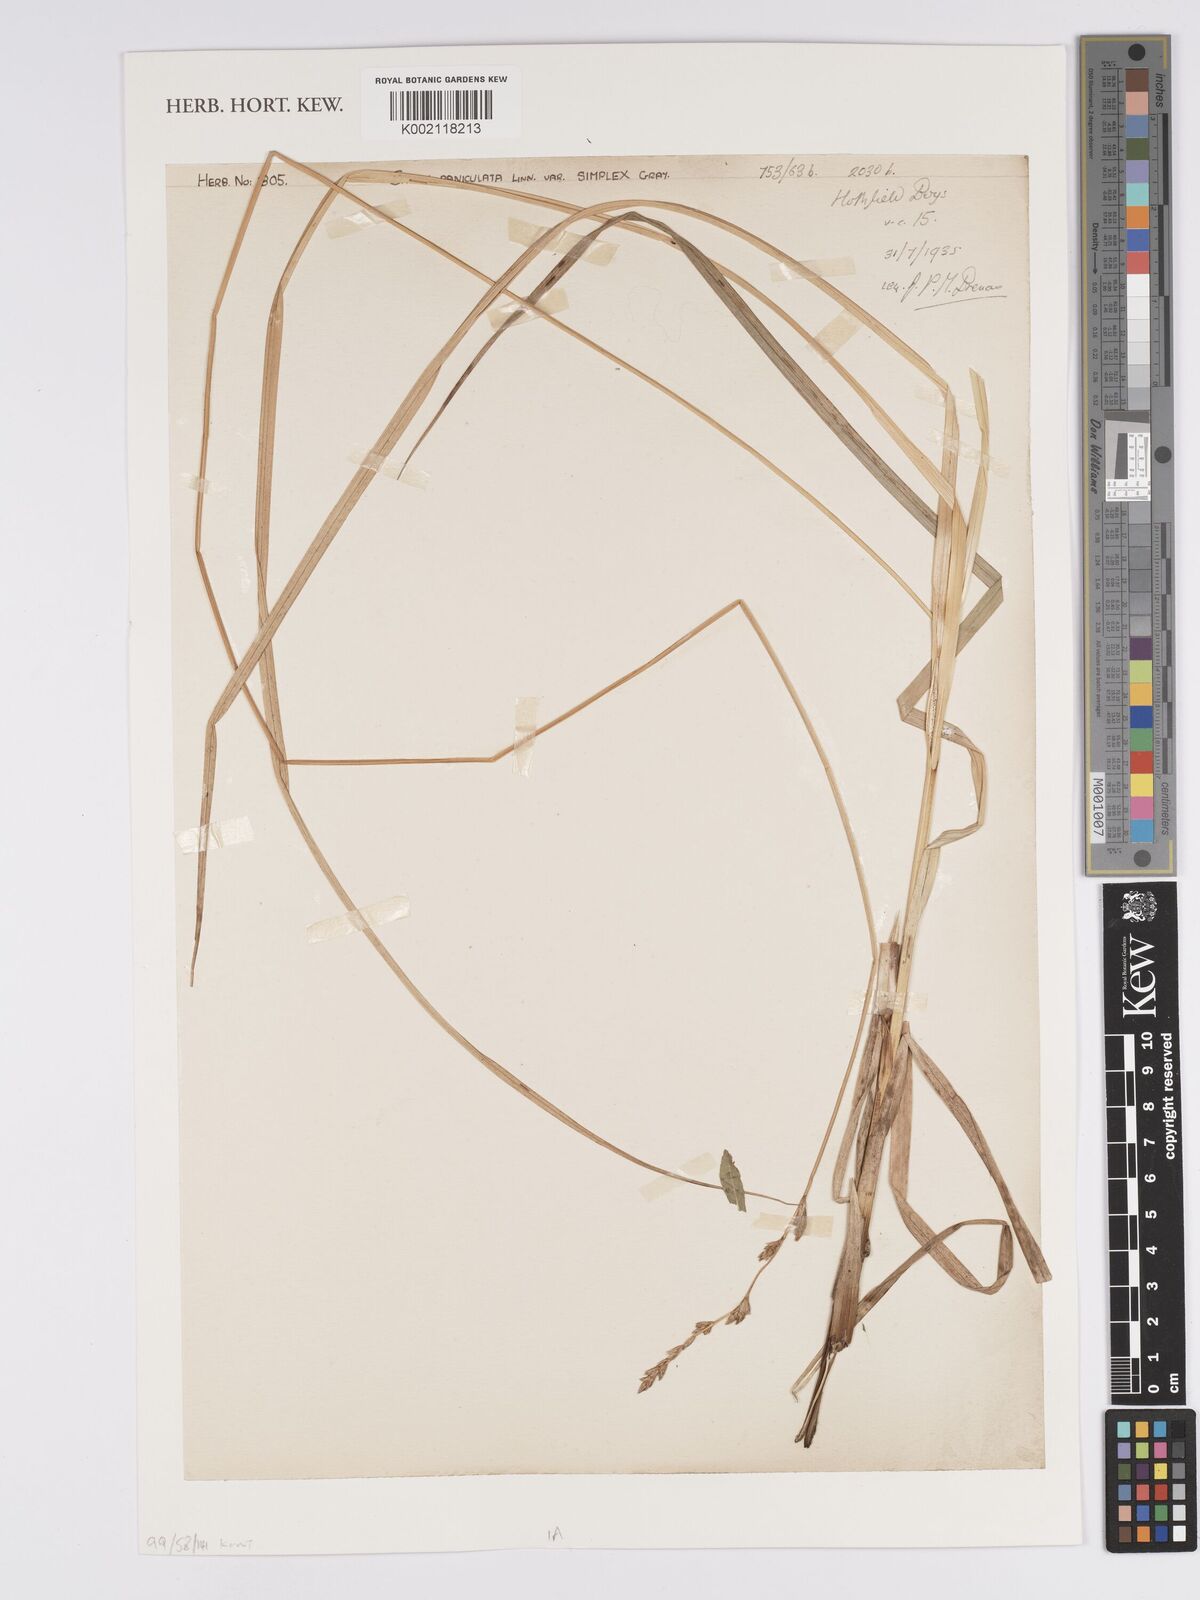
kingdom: Plantae
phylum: Tracheophyta
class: Liliopsida
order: Poales
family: Cyperaceae
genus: Carex
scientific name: Carex paniculata
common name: Greater tussock-sedge
